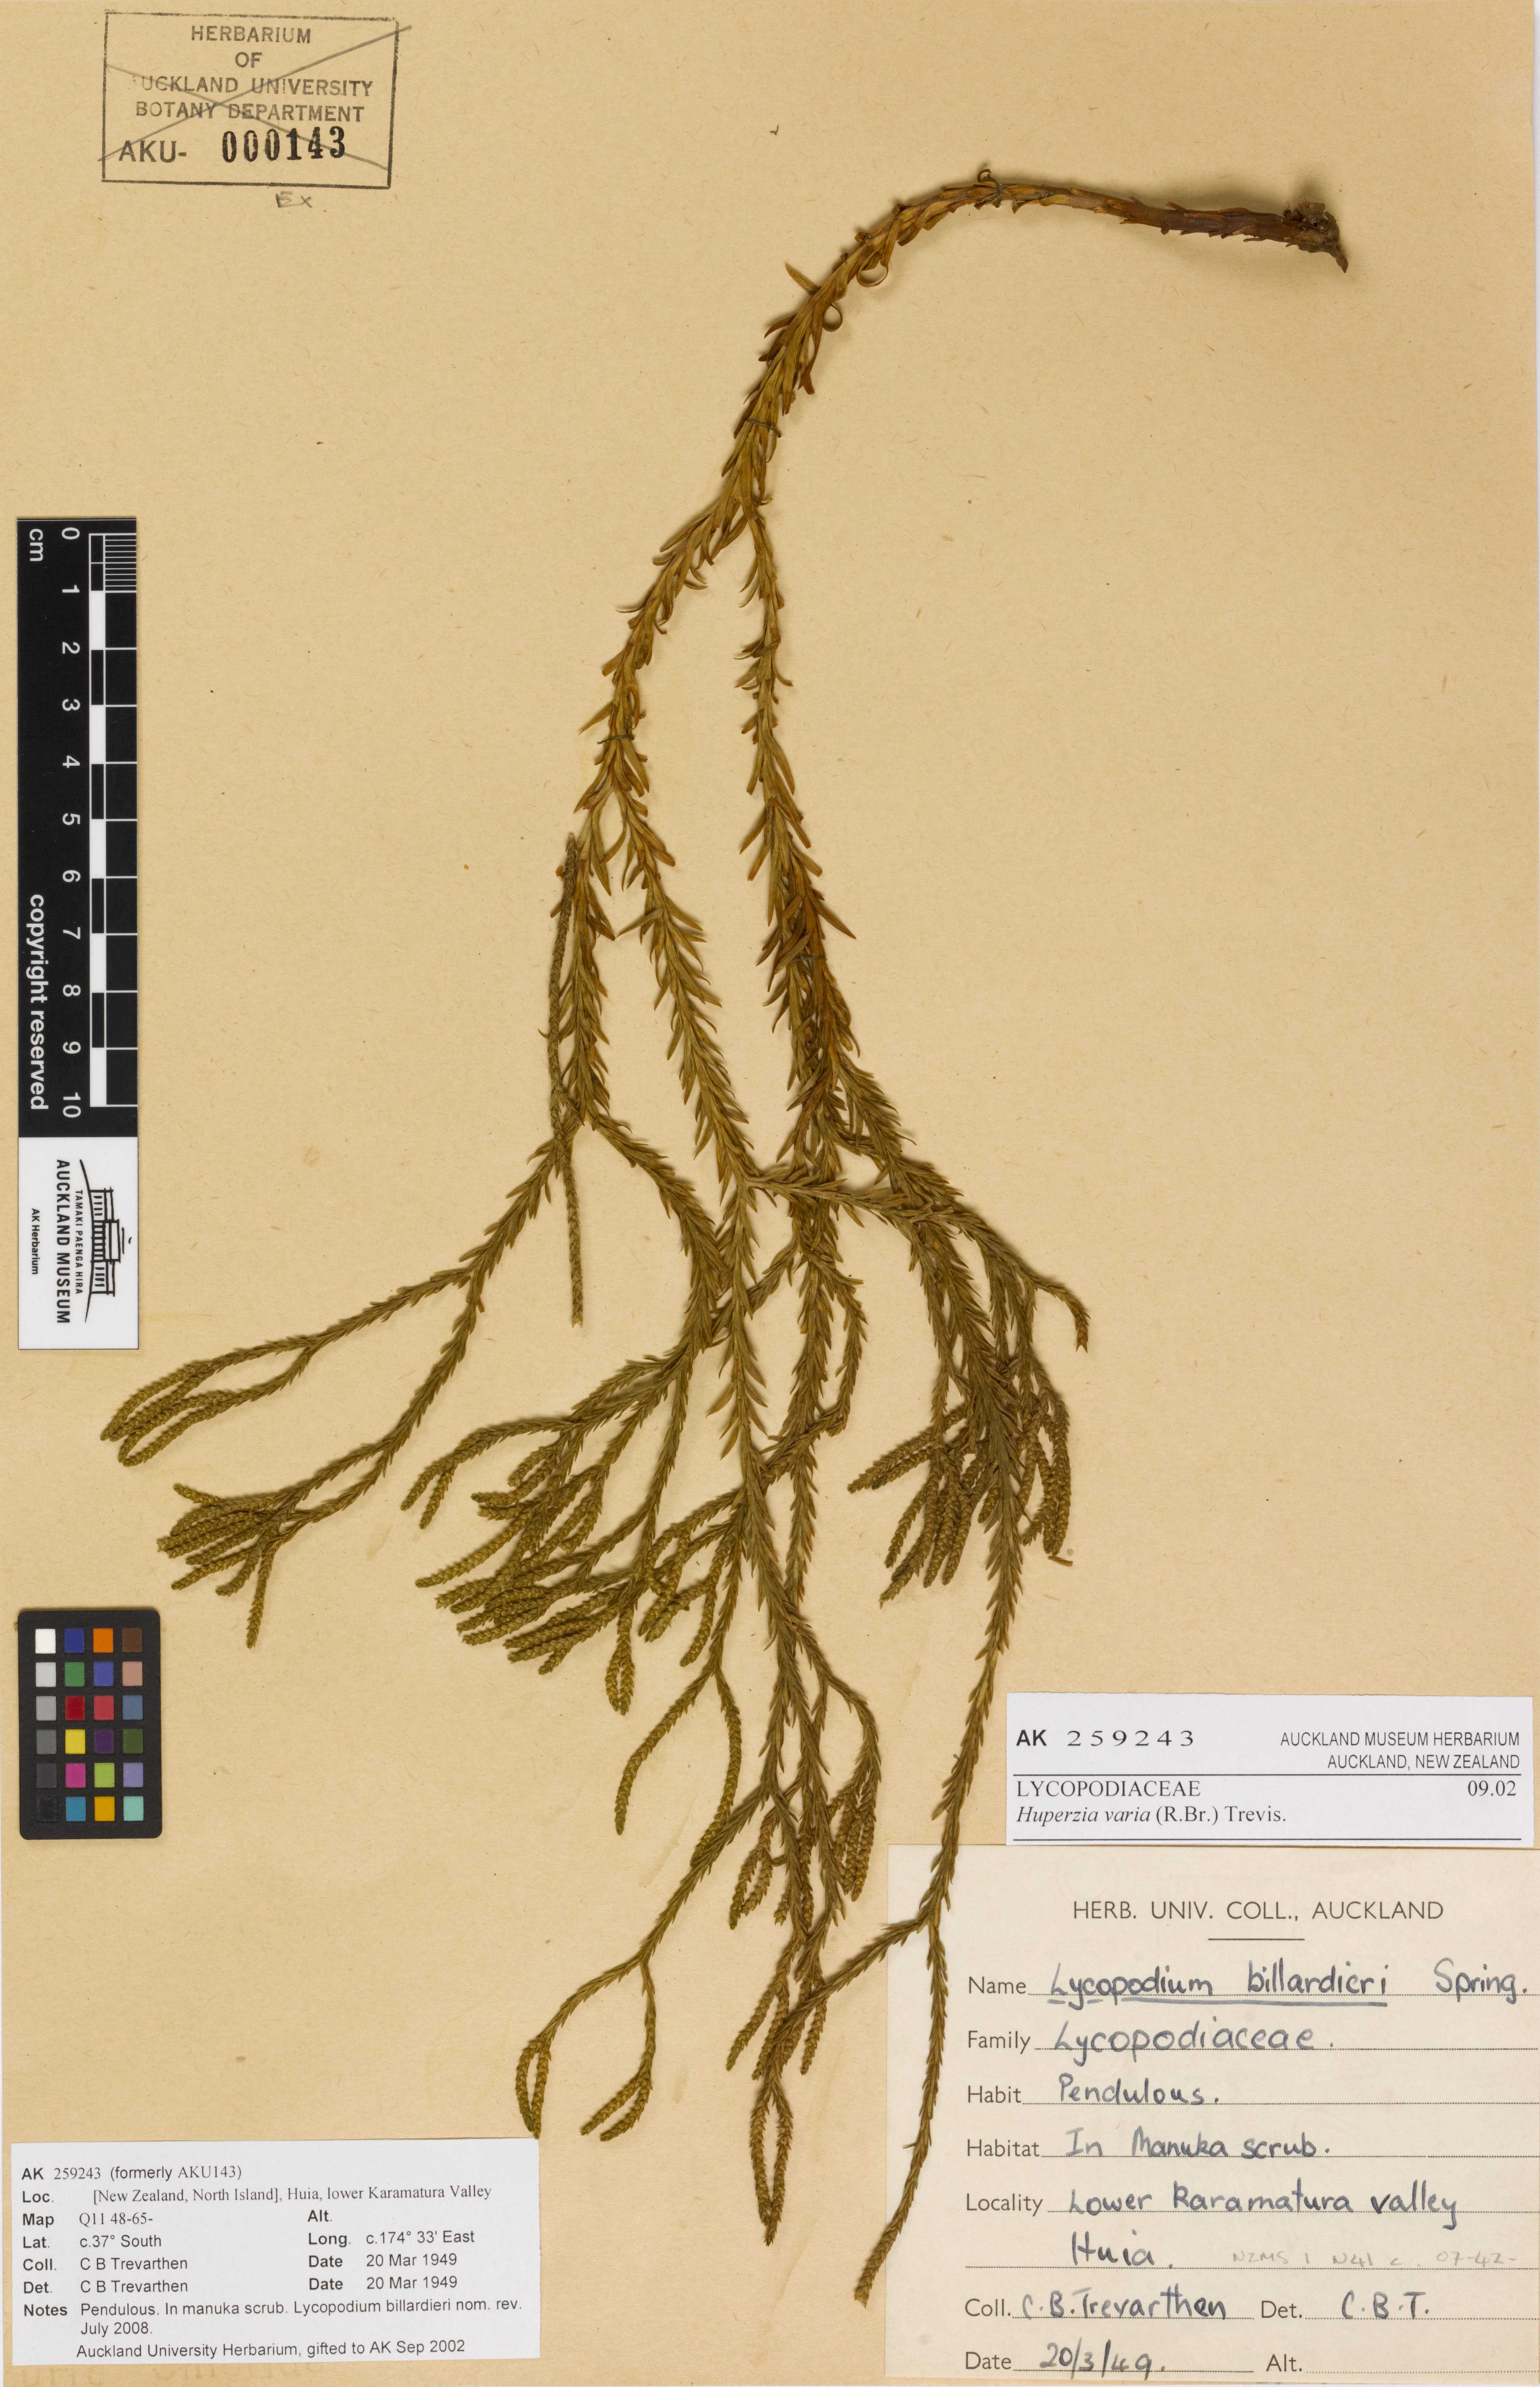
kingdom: Plantae
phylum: Tracheophyta
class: Lycopodiopsida
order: Lycopodiales
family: Lycopodiaceae
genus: Phlegmariurus
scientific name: Phlegmariurus billardierei
